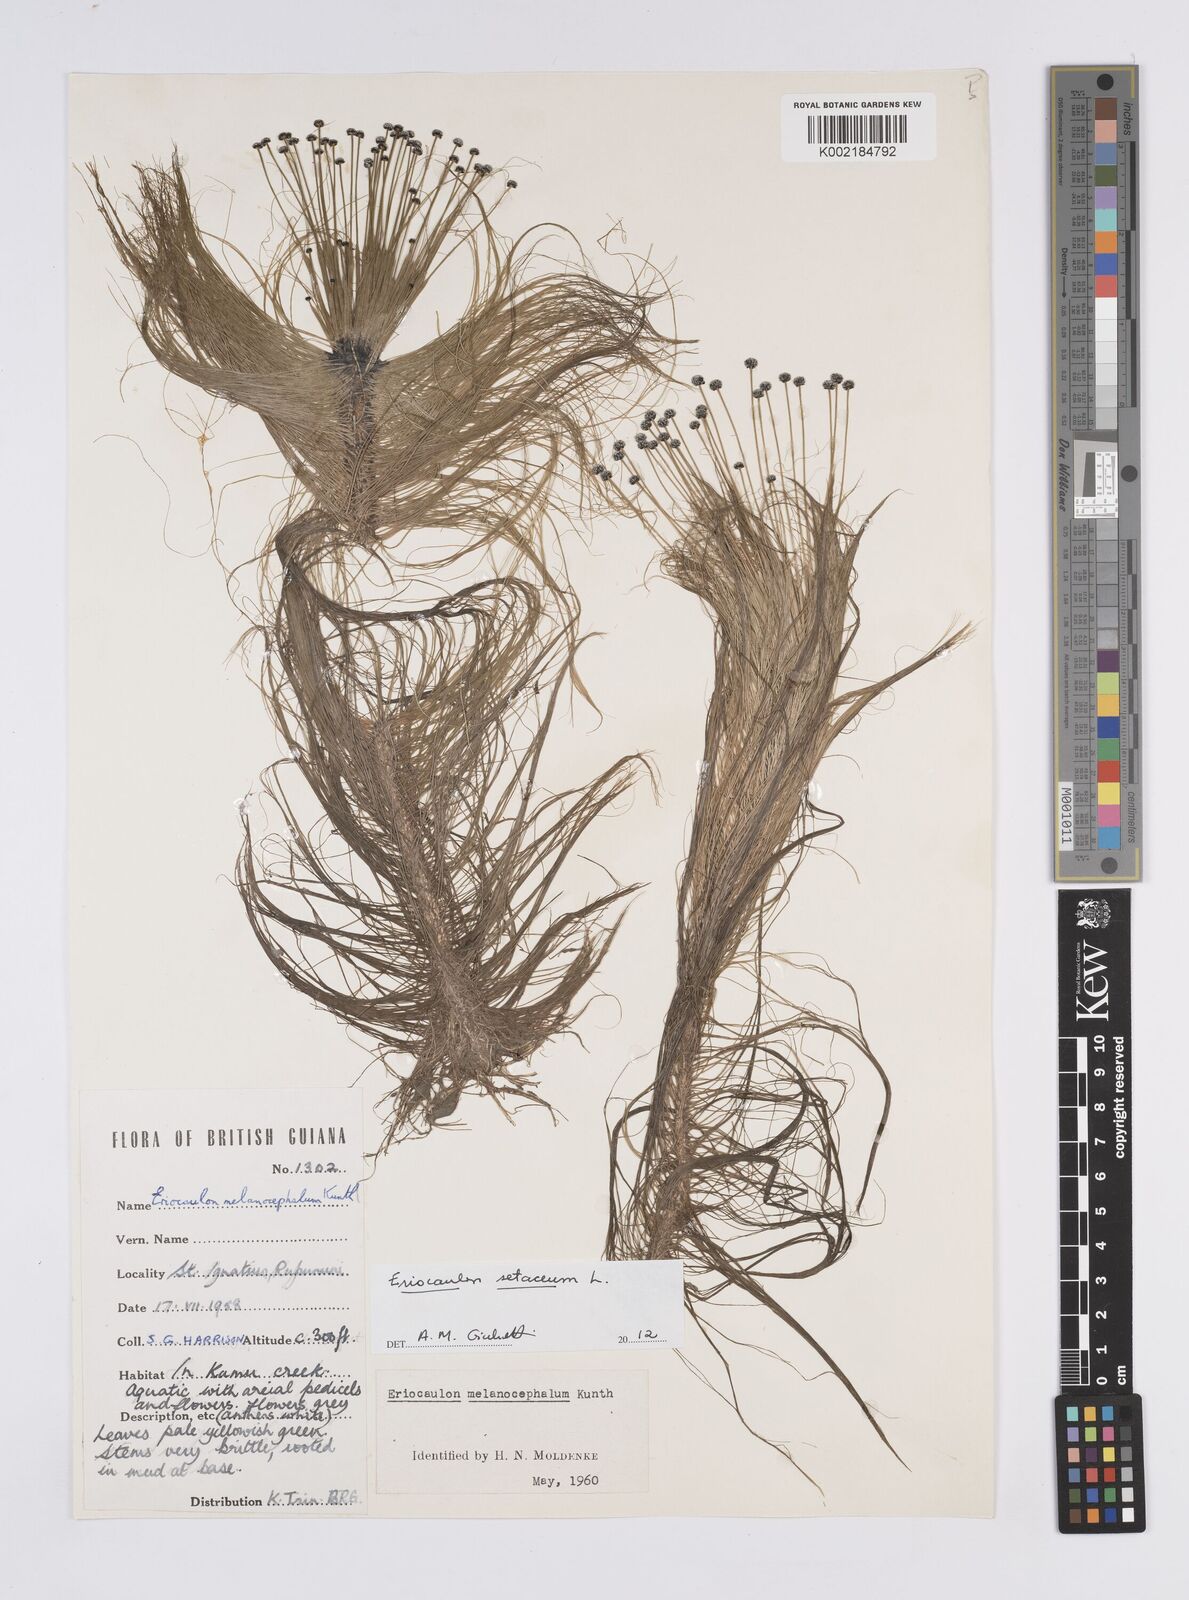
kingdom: Plantae
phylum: Tracheophyta
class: Liliopsida
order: Poales
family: Eriocaulaceae
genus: Eriocaulon
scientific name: Eriocaulon setaceum
